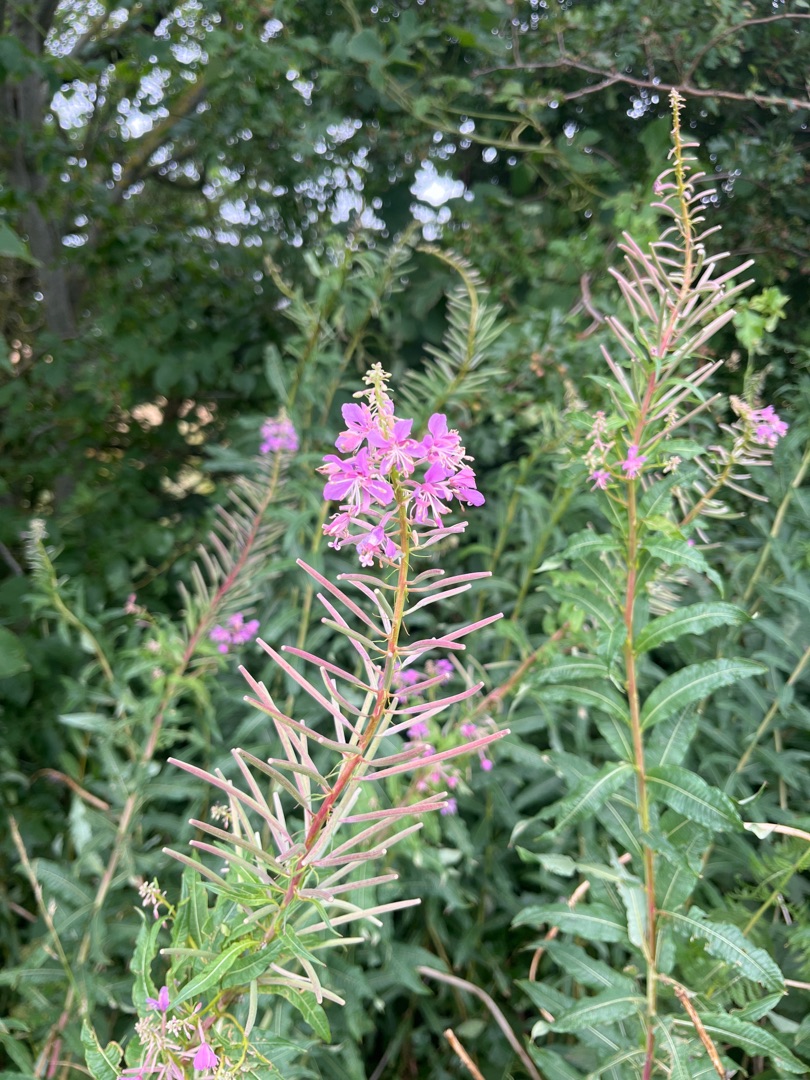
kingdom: Plantae
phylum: Tracheophyta
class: Magnoliopsida
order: Myrtales
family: Onagraceae
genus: Chamaenerion
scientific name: Chamaenerion angustifolium
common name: Gederams
